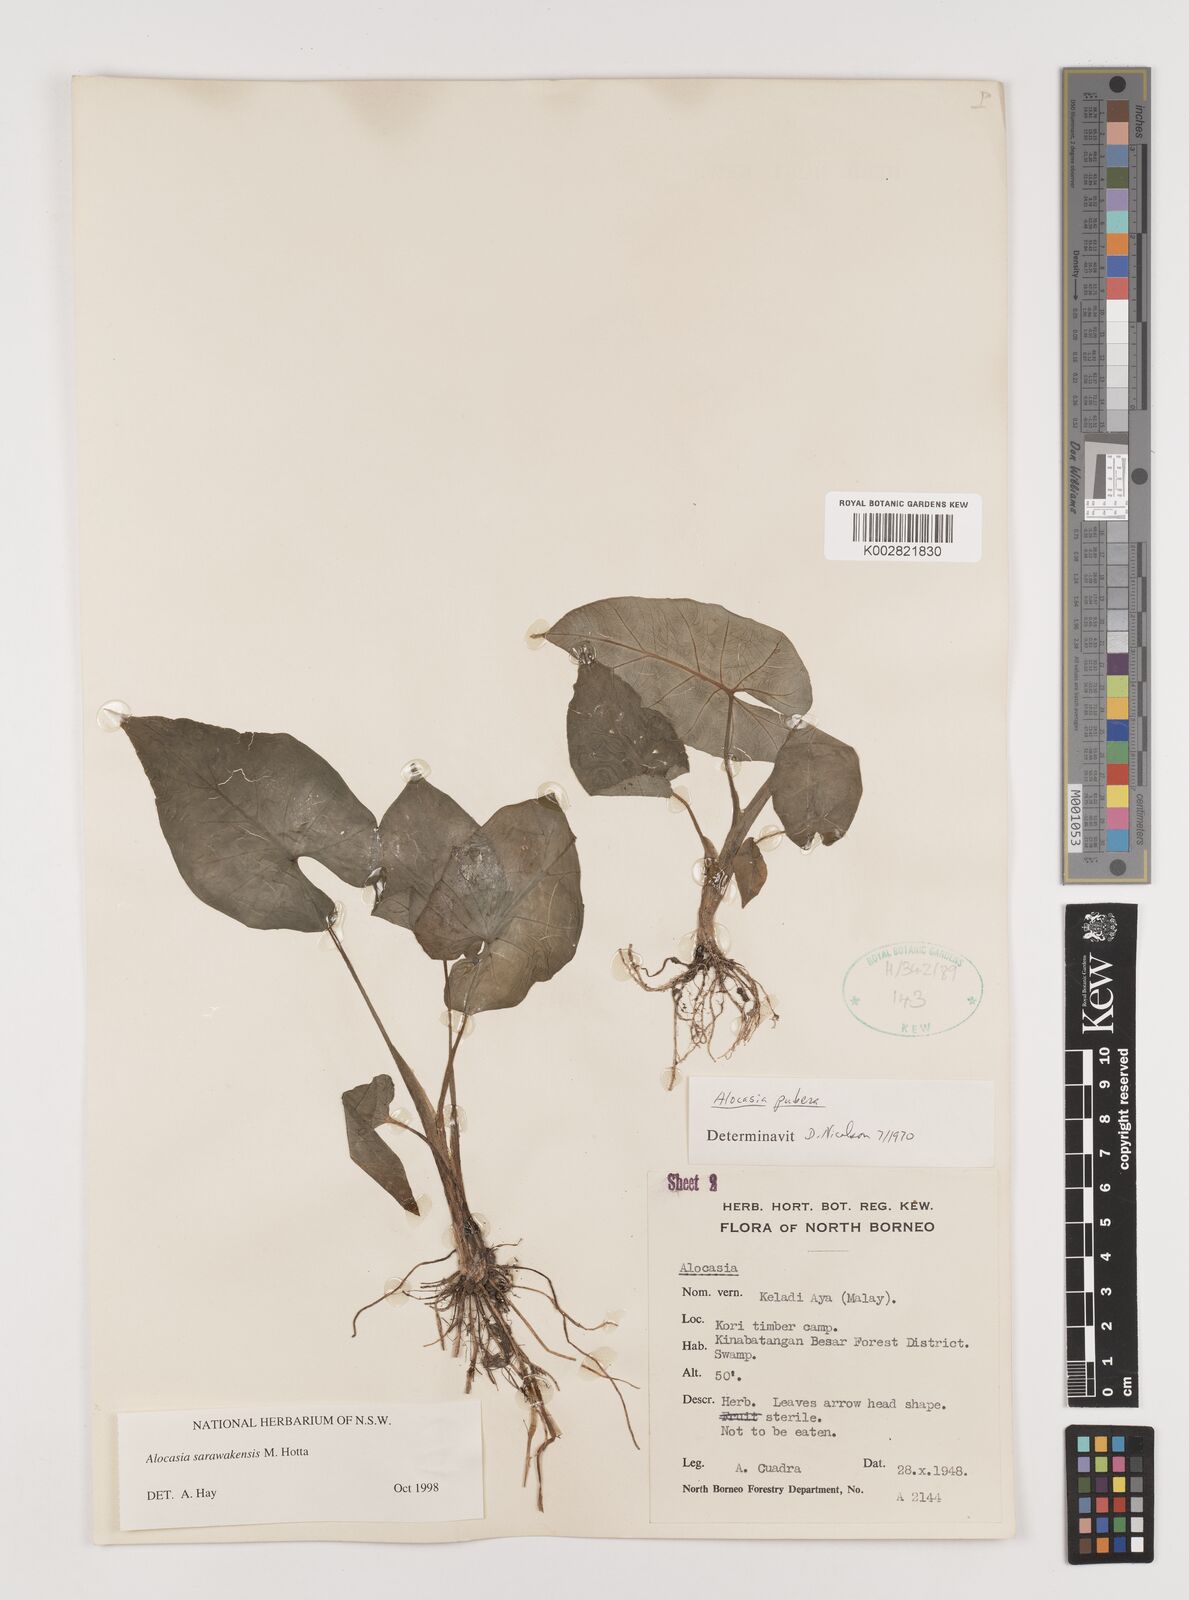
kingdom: Plantae
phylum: Tracheophyta
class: Liliopsida
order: Alismatales
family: Araceae
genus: Alocasia
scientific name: Alocasia sarawakensis
